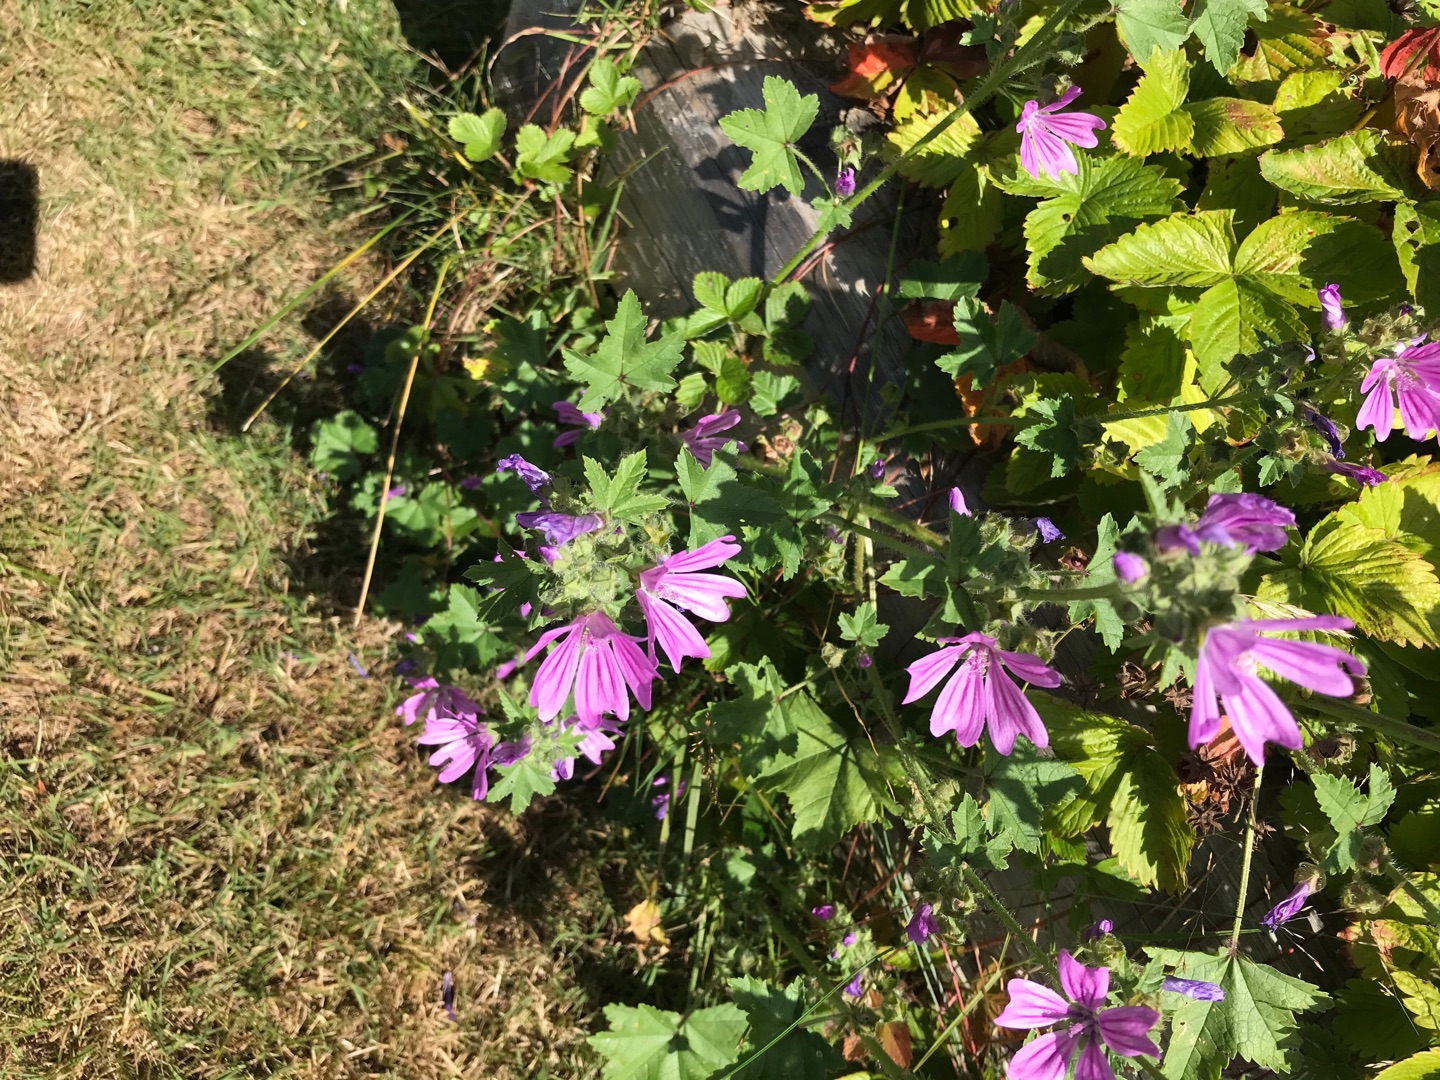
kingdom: Plantae
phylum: Tracheophyta
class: Magnoliopsida
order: Malvales
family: Malvaceae
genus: Malva
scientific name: Malva sylvestris
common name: Almindelig katost
